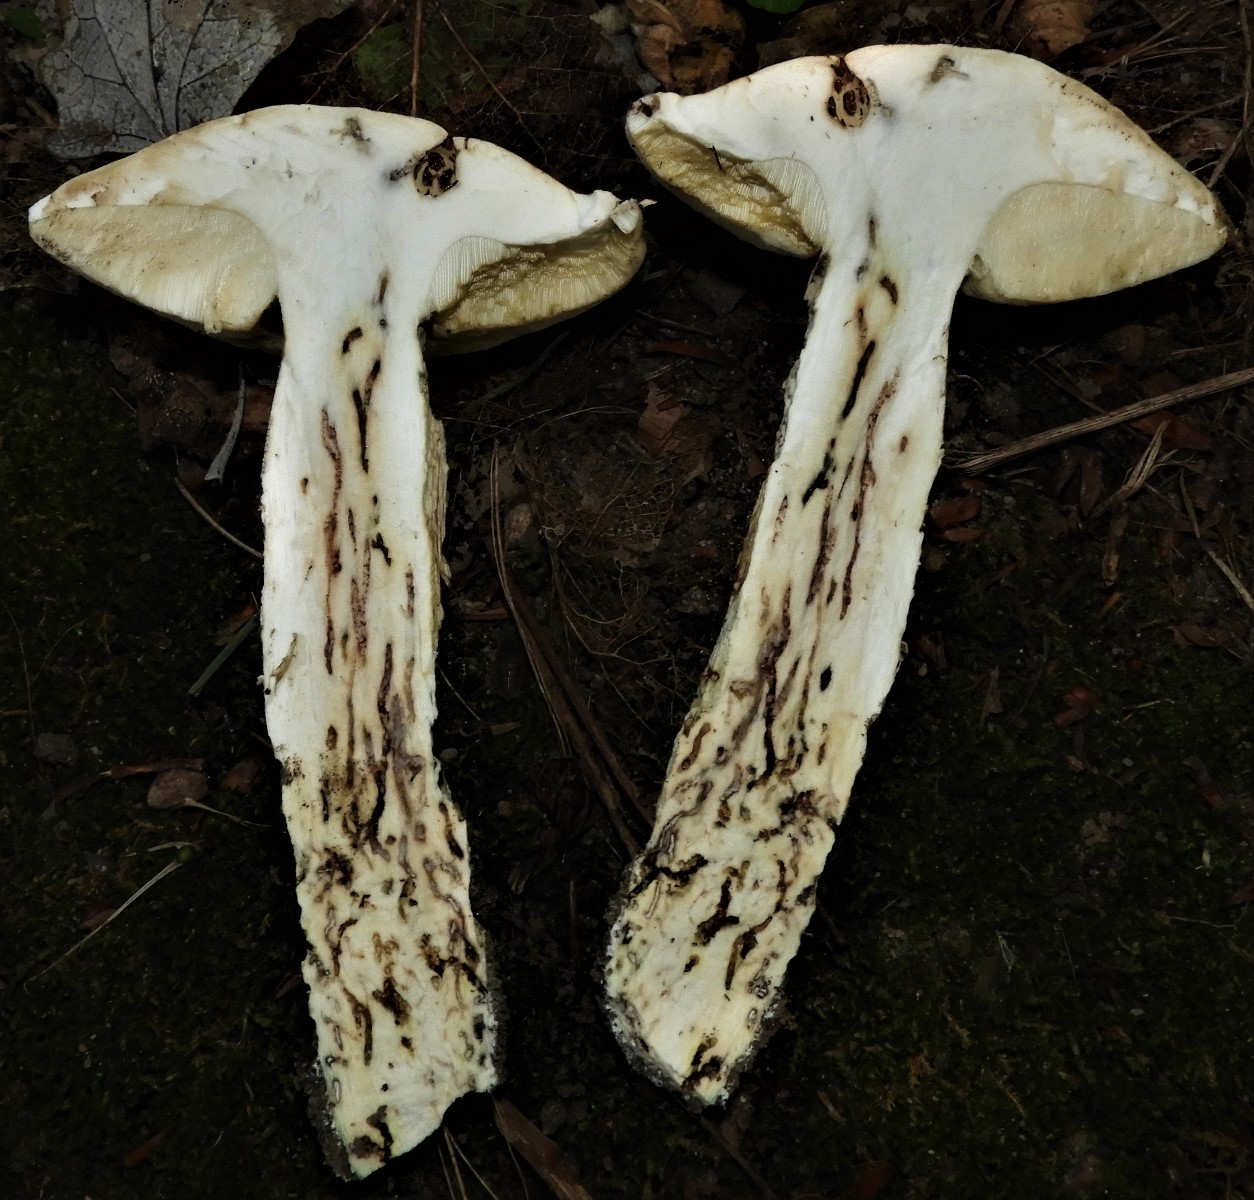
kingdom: Fungi
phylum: Basidiomycota
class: Agaricomycetes
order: Boletales
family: Boletaceae
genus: Leccinum
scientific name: Leccinum duriusculum
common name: poppel-skælrørhat
